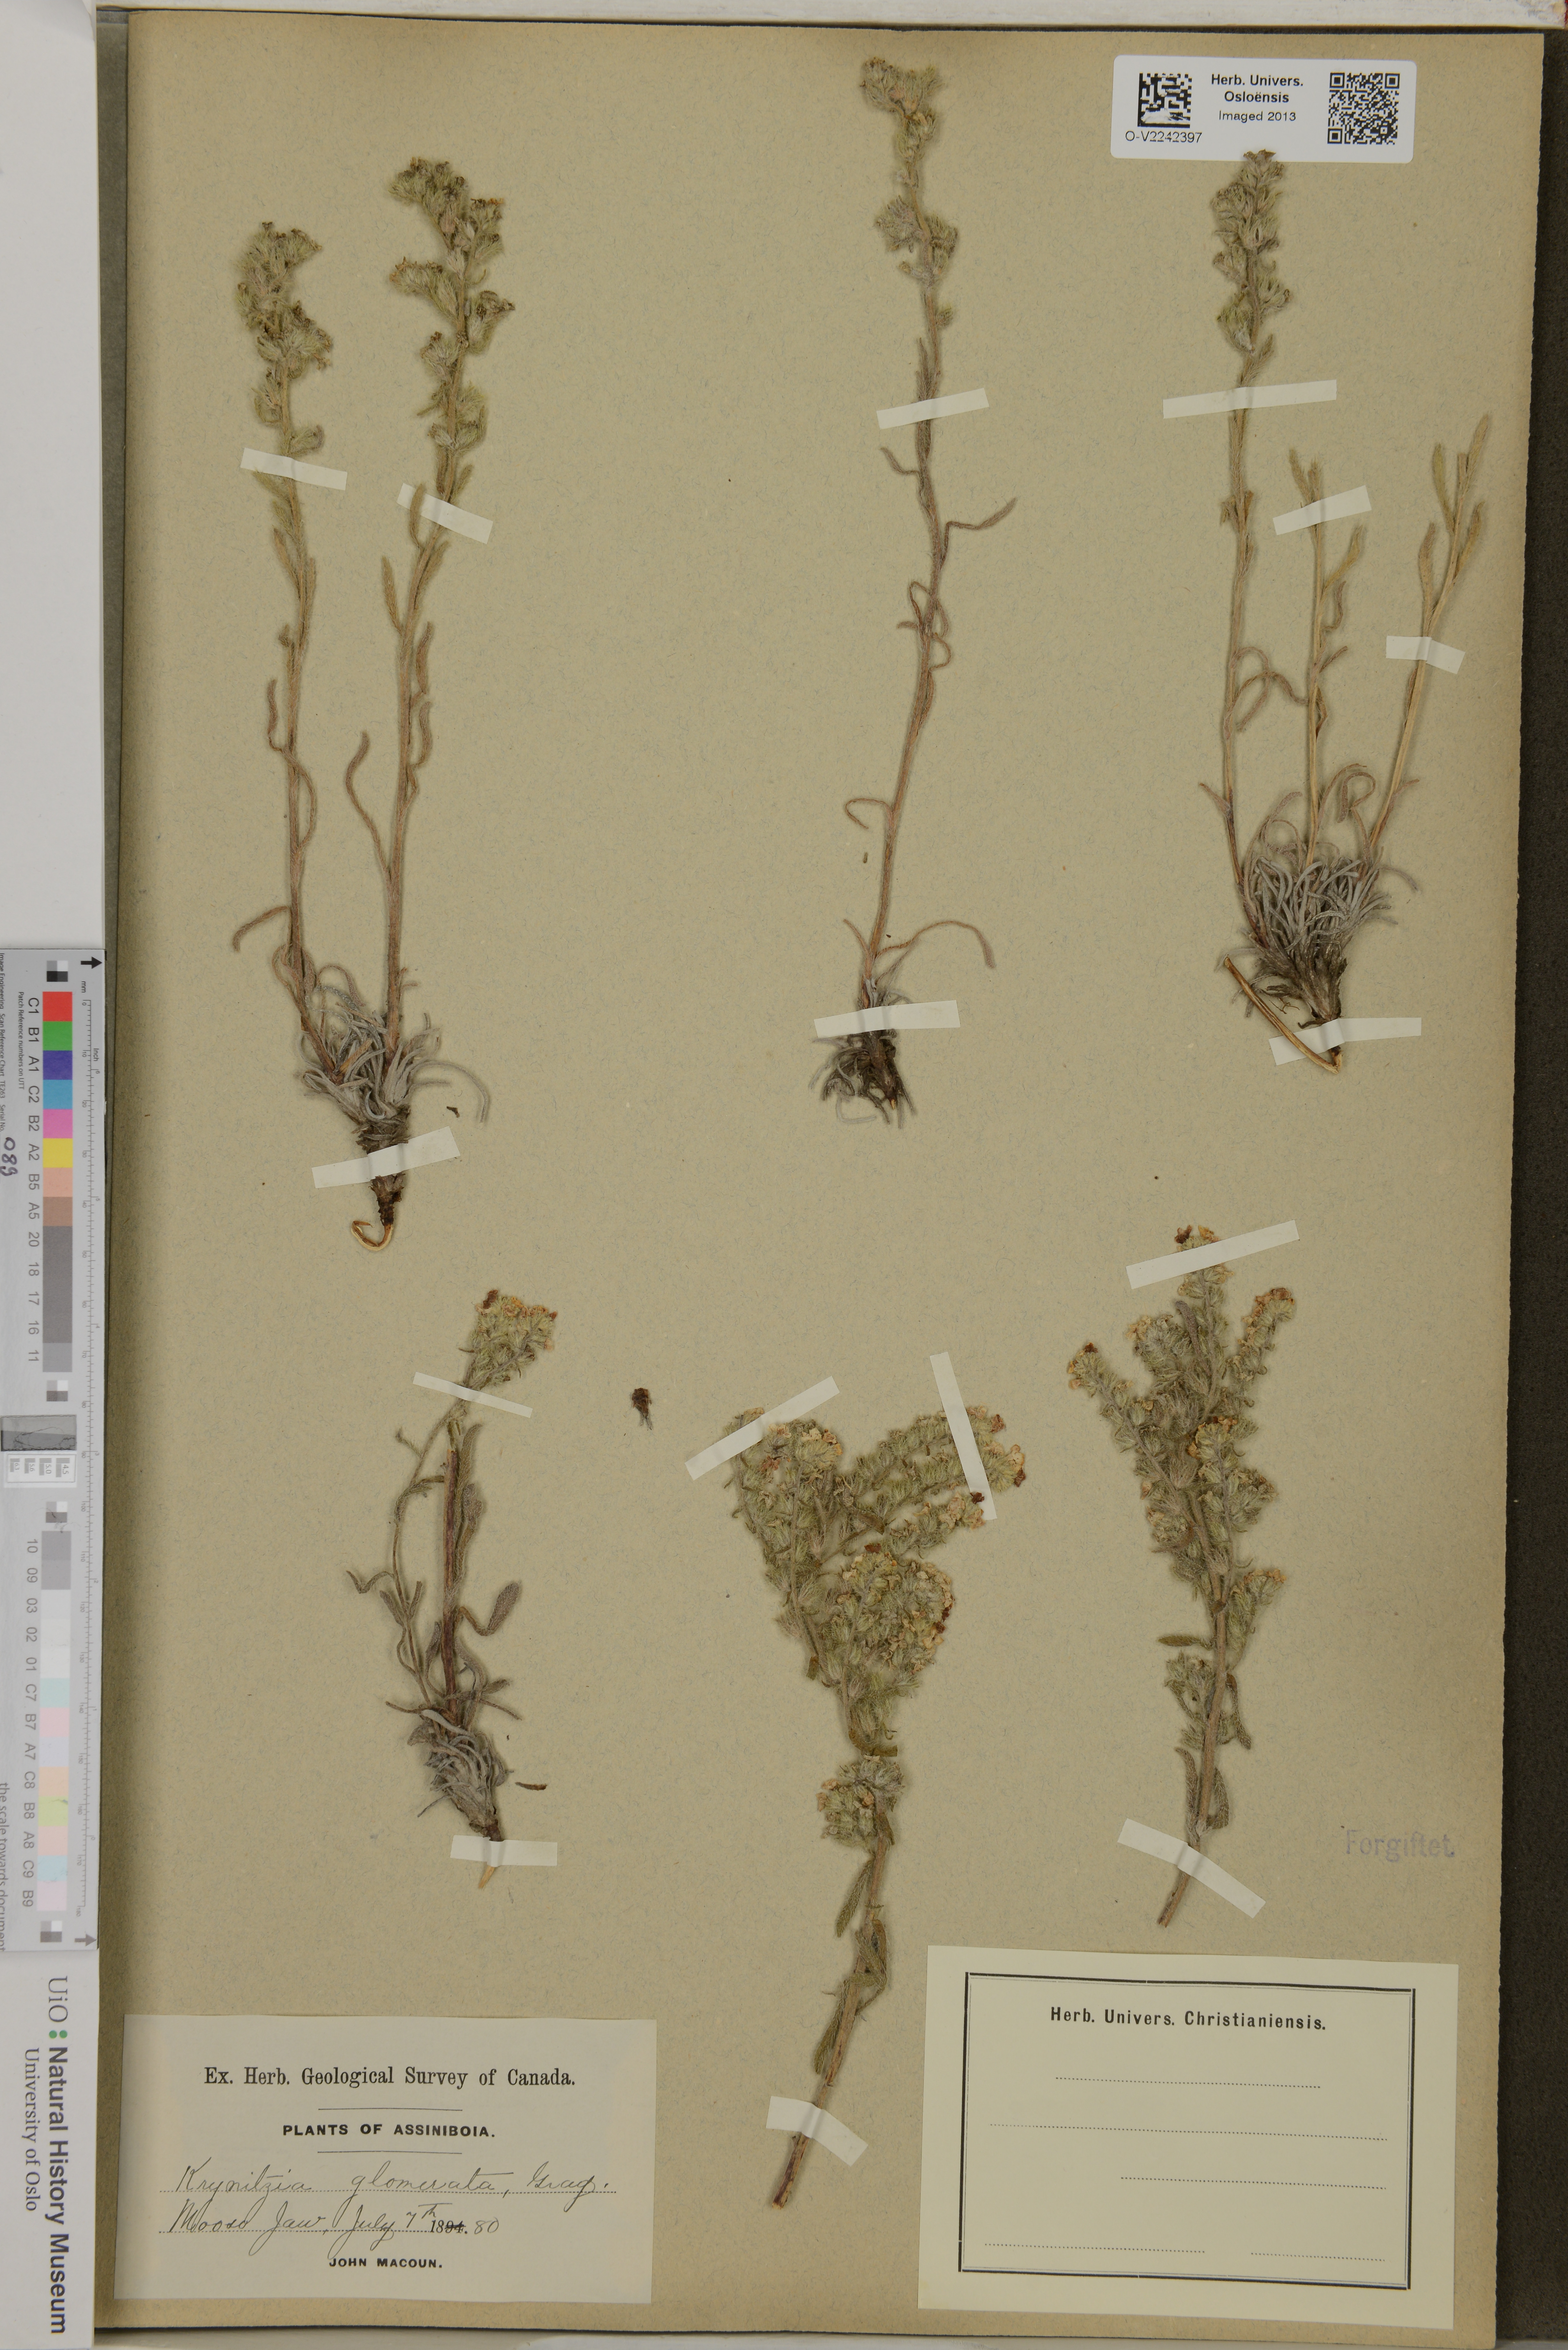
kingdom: Plantae
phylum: Tracheophyta
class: Magnoliopsida
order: Boraginales
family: Boraginaceae
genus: Oreocarya
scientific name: Oreocarya glomerata
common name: Macoun's cryptantha
